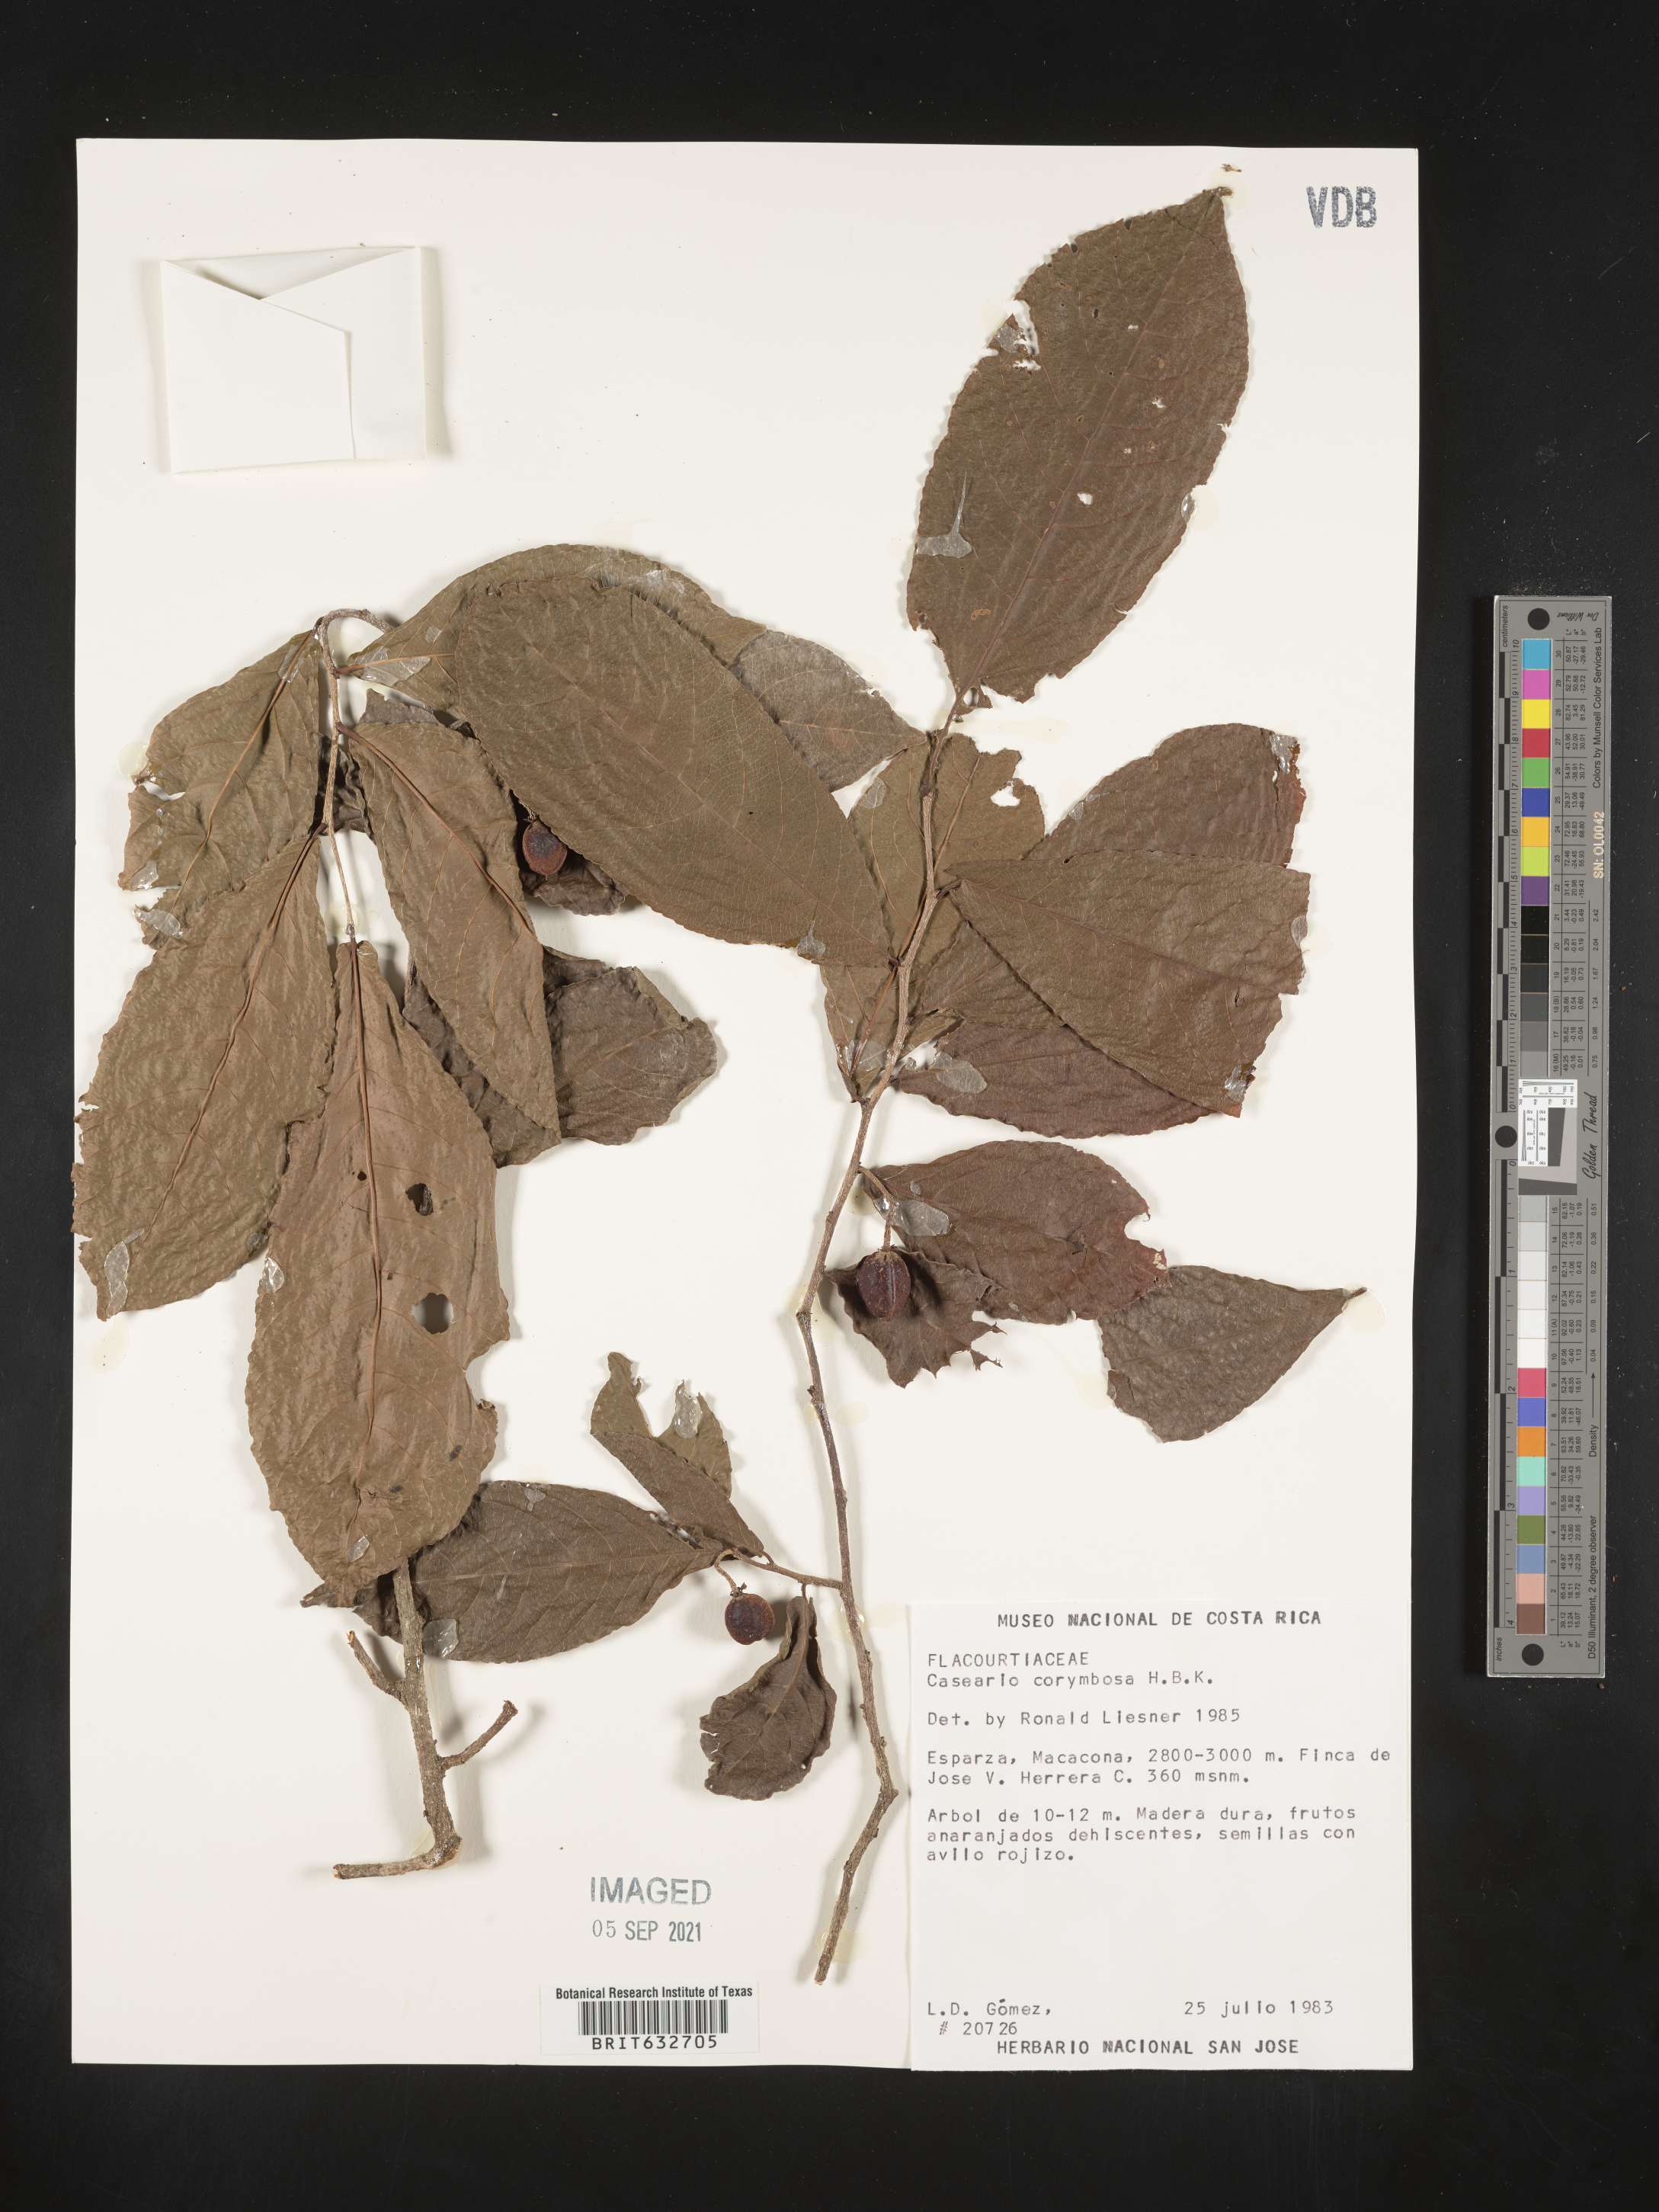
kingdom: Plantae
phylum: Tracheophyta
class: Magnoliopsida
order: Malpighiales
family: Salicaceae
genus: Casearia
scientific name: Casearia
